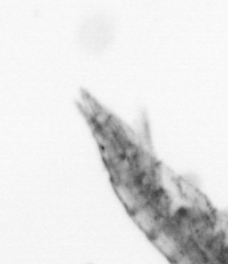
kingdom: Animalia
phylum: Arthropoda
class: Copepoda
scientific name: Copepoda
